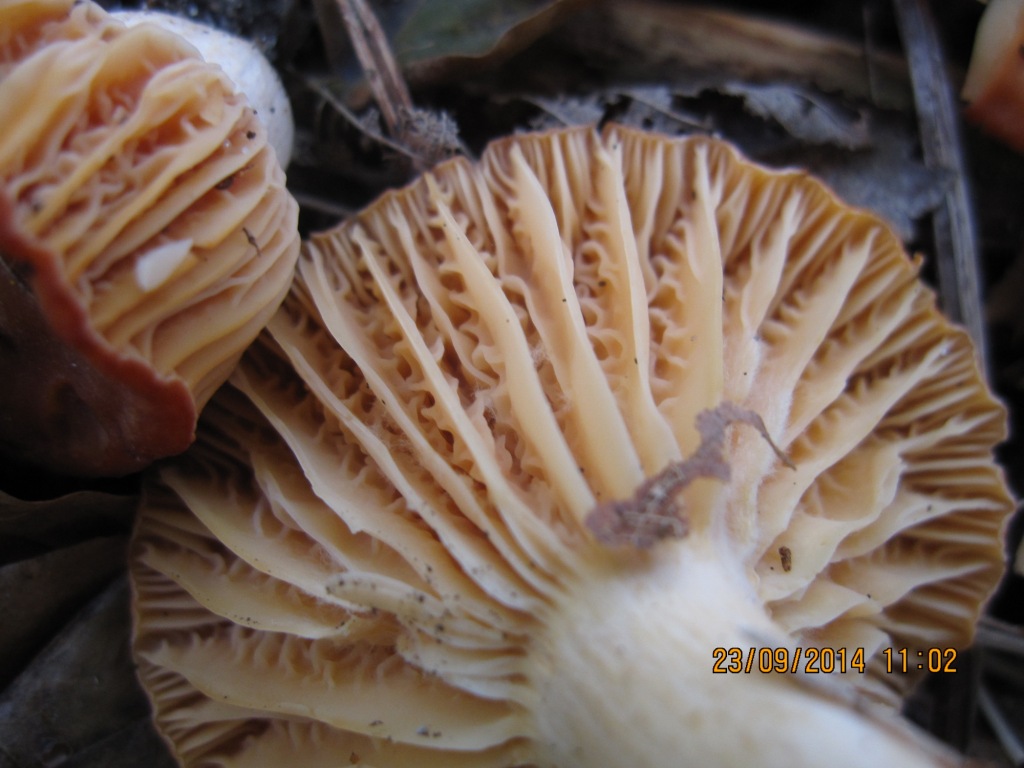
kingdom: Fungi
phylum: Basidiomycota
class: Agaricomycetes
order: Agaricales
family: Hygrophoraceae
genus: Cuphophyllus
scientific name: Cuphophyllus pratensis
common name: eng-vokshat
